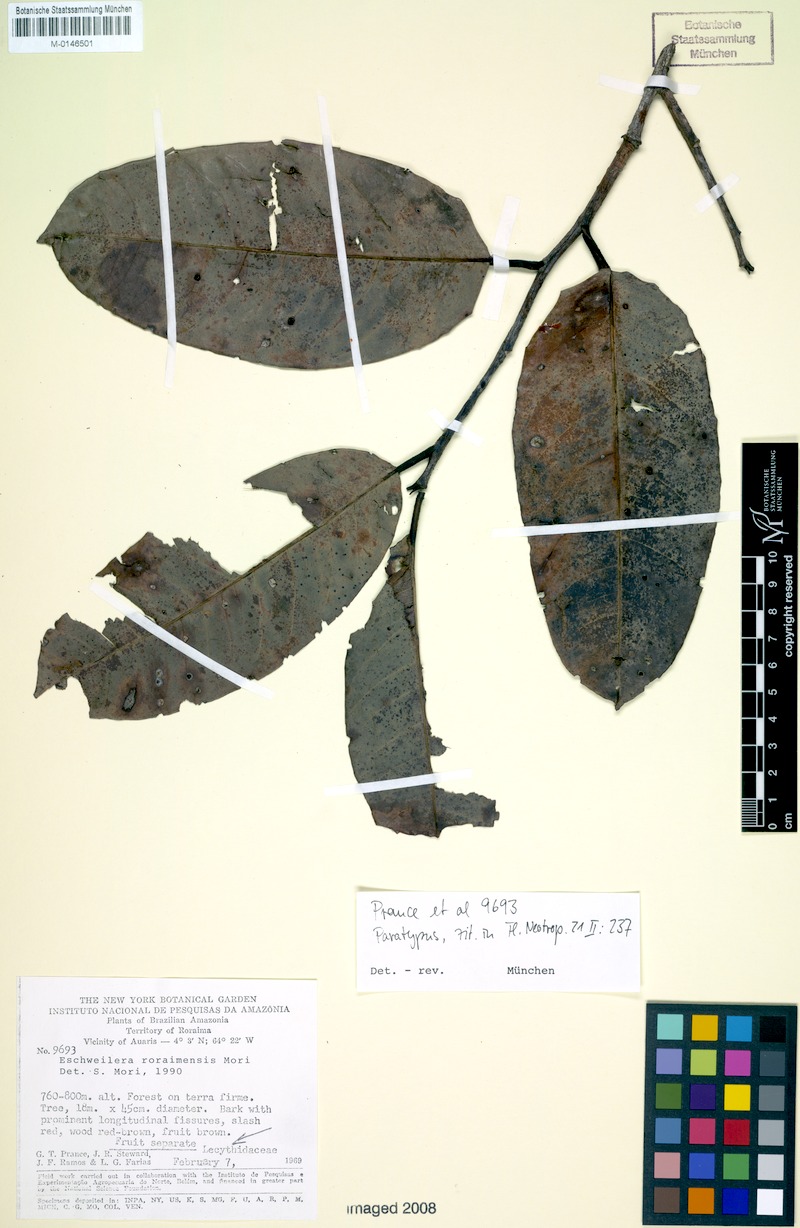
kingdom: Plantae
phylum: Tracheophyta
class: Magnoliopsida
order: Ericales
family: Lecythidaceae
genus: Eschweilera
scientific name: Eschweilera roraimensis
